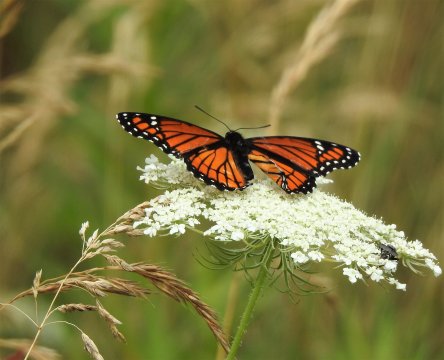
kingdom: Animalia
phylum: Arthropoda
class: Insecta
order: Lepidoptera
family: Nymphalidae
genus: Limenitis
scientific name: Limenitis archippus
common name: Viceroy
